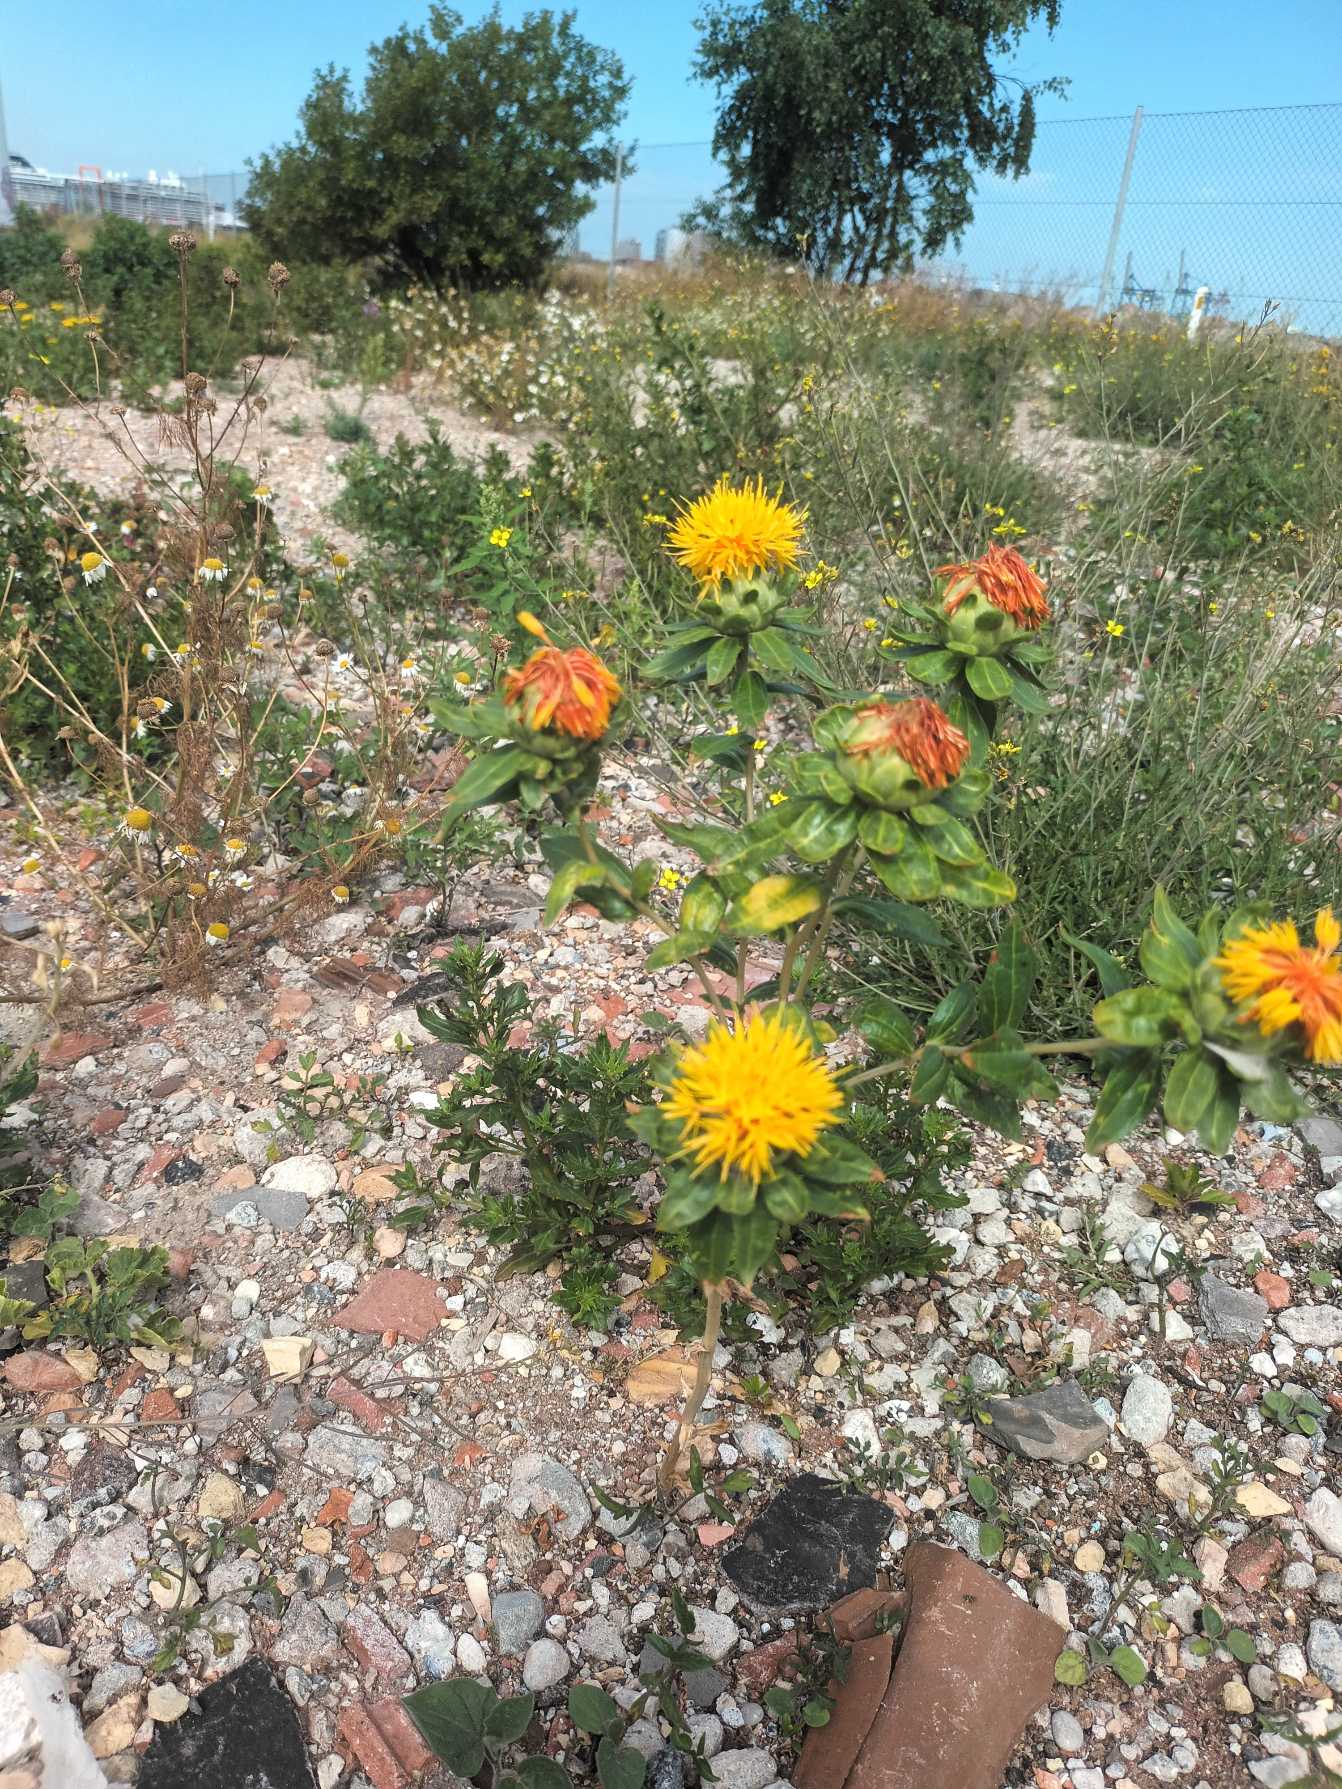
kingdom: Plantae
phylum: Tracheophyta
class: Magnoliopsida
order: Asterales
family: Asteraceae
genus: Carthamus
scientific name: Carthamus tinctorius
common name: Saflortidsel
